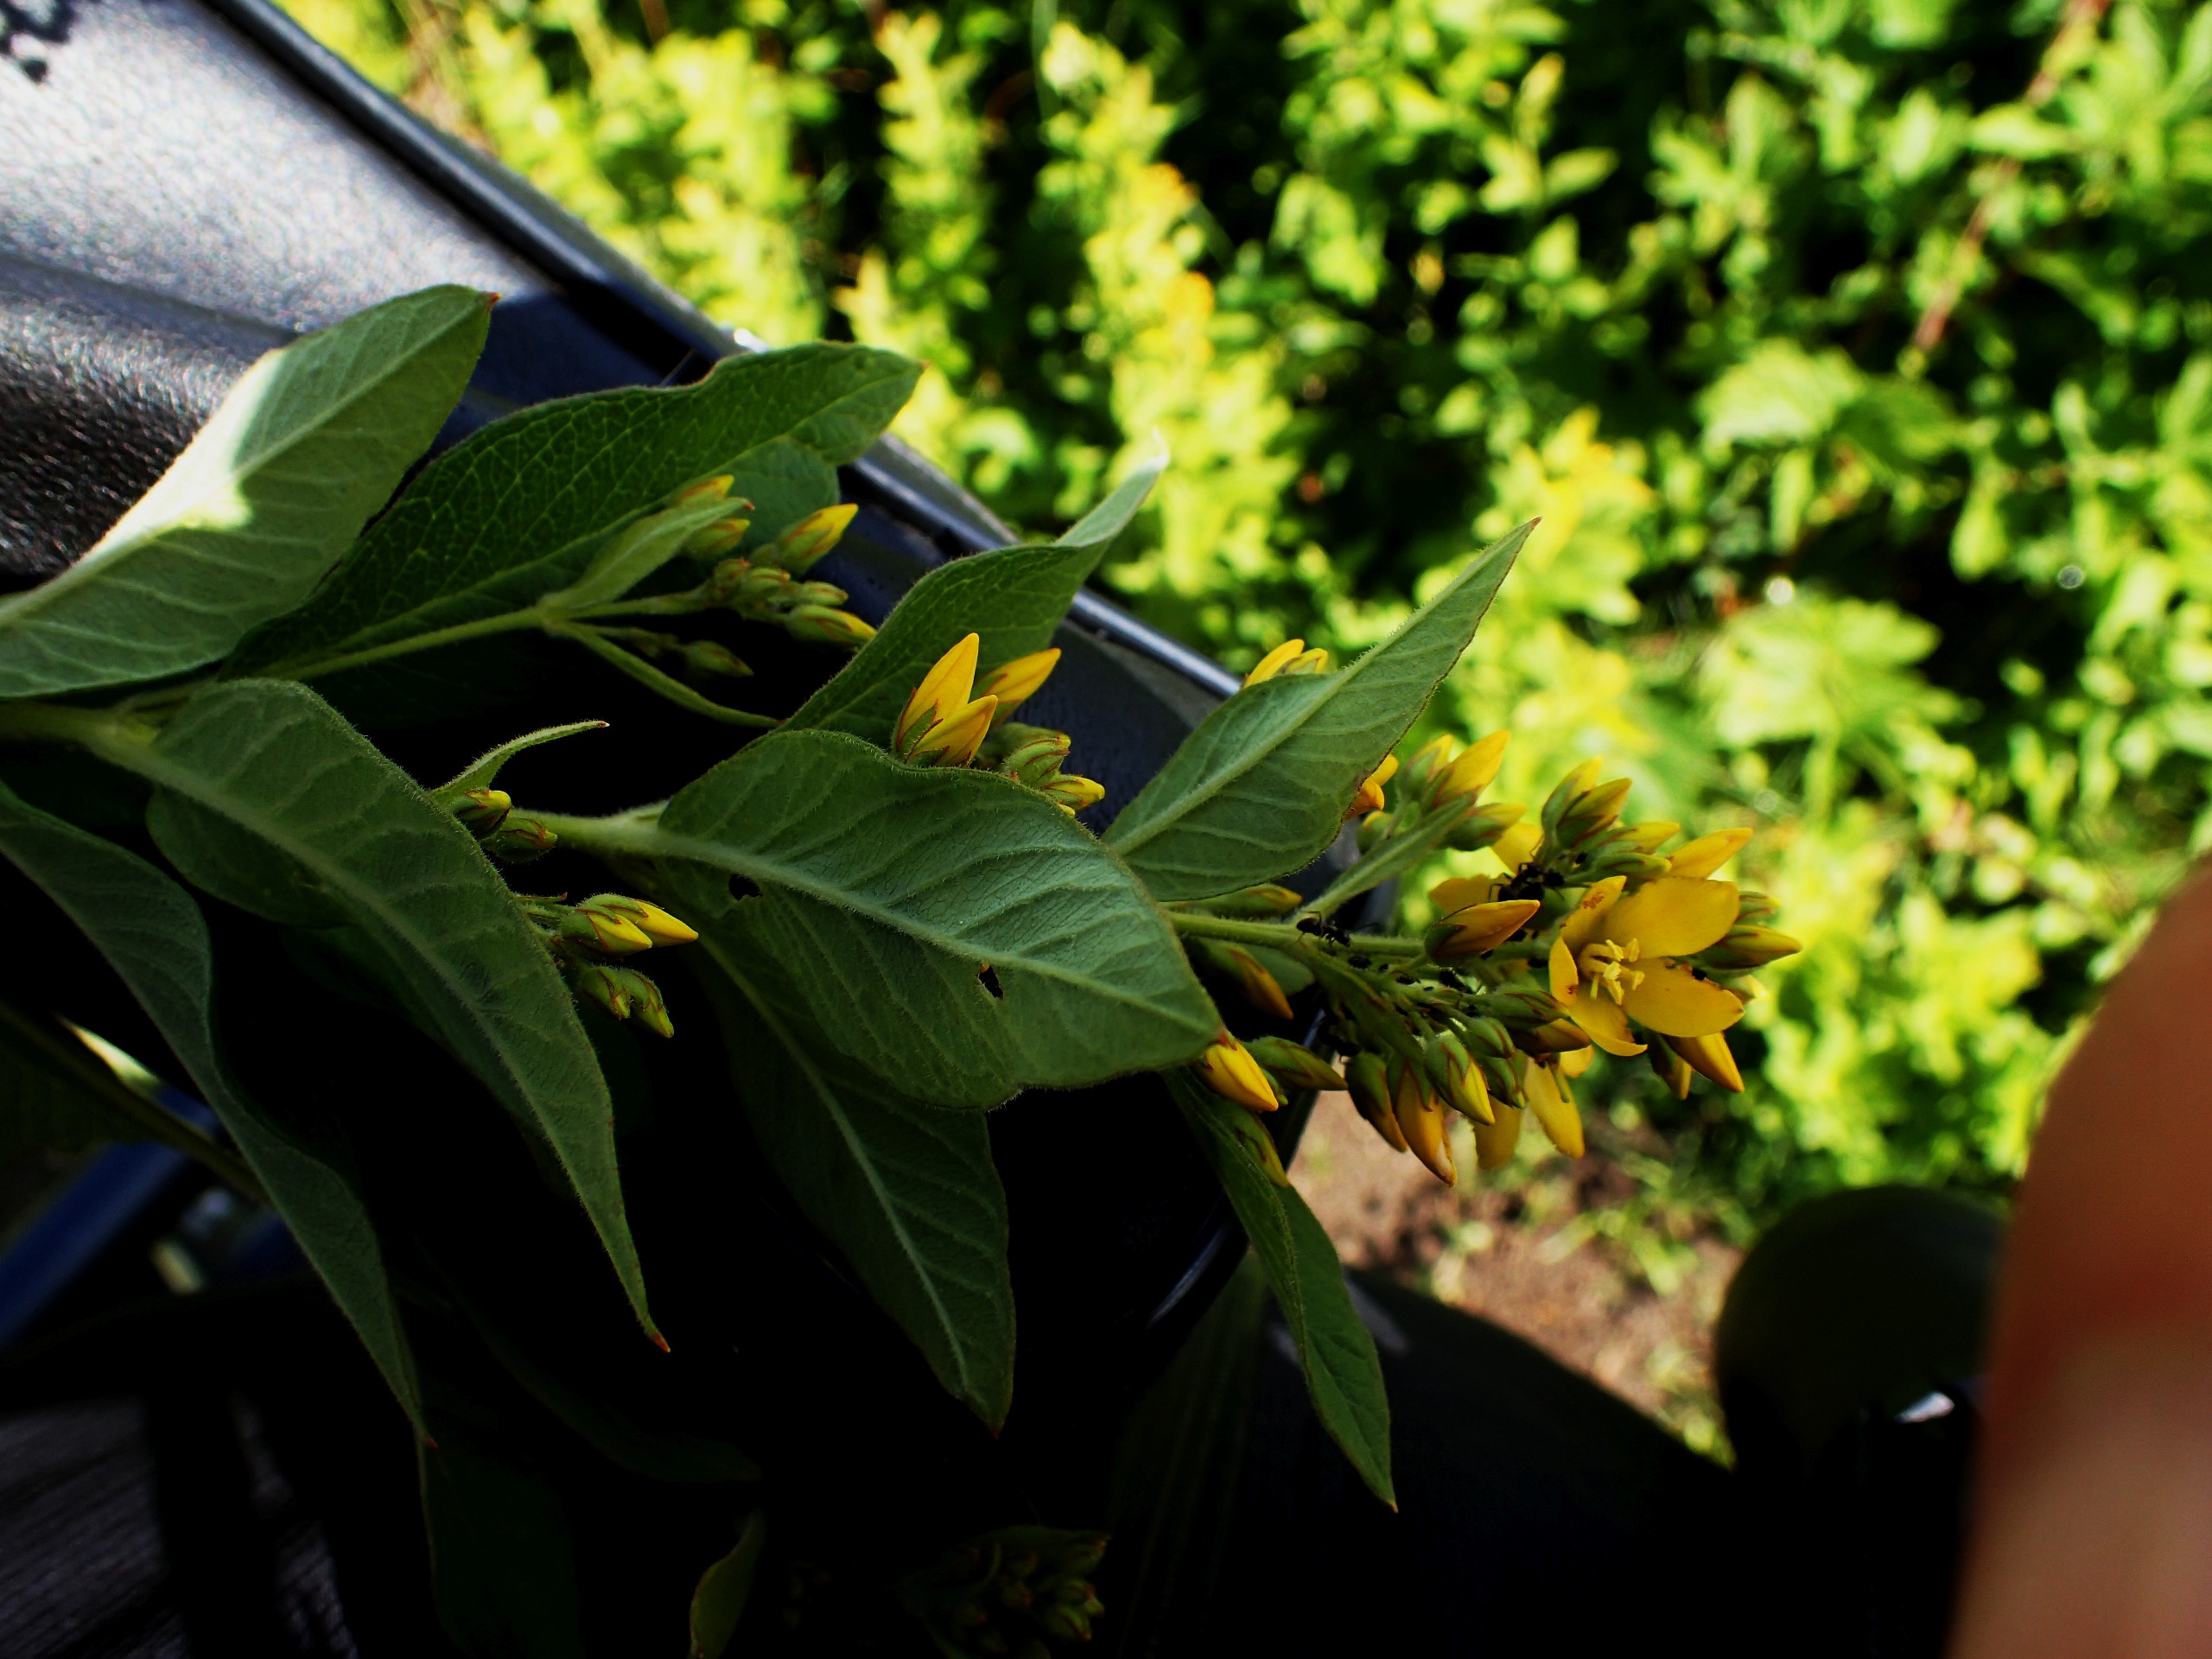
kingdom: Plantae
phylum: Tracheophyta
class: Magnoliopsida
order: Ericales
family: Primulaceae
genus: Lysimachia
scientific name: Lysimachia vulgaris
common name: Almindelig fredløs
